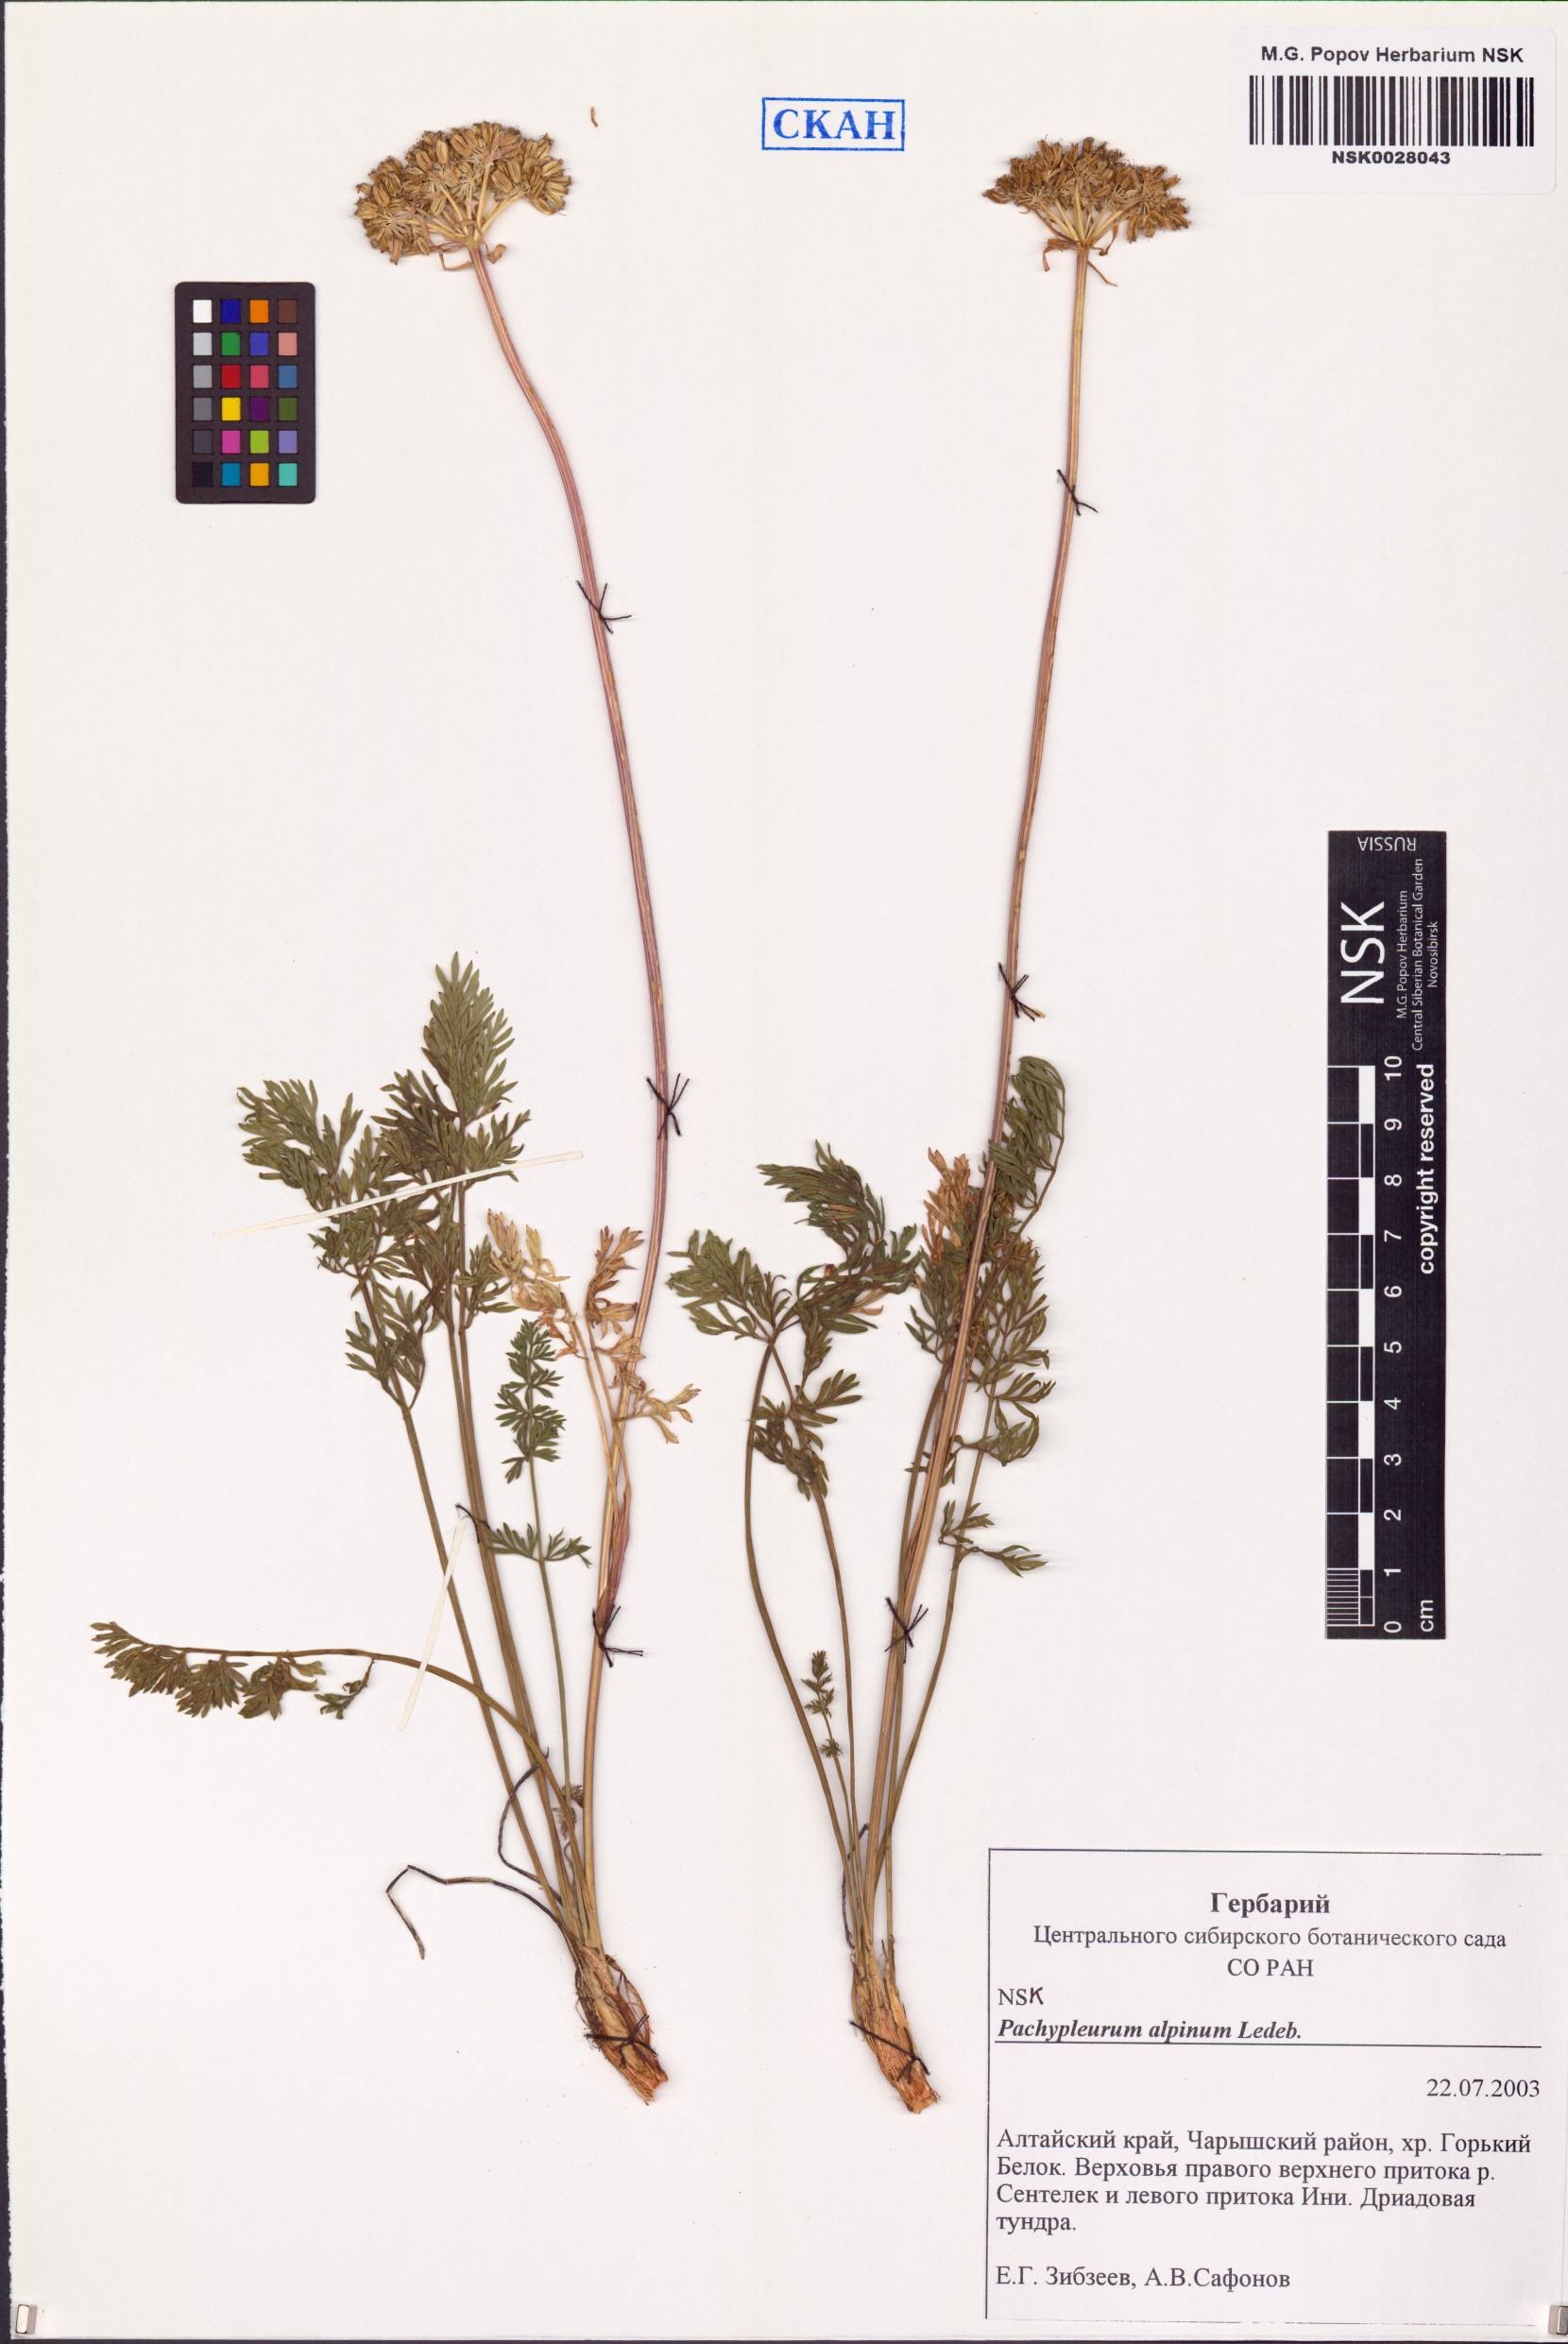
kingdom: Plantae
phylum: Tracheophyta
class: Magnoliopsida
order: Apiales
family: Apiaceae
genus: Pachypleurum
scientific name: Pachypleurum mutellinoides
